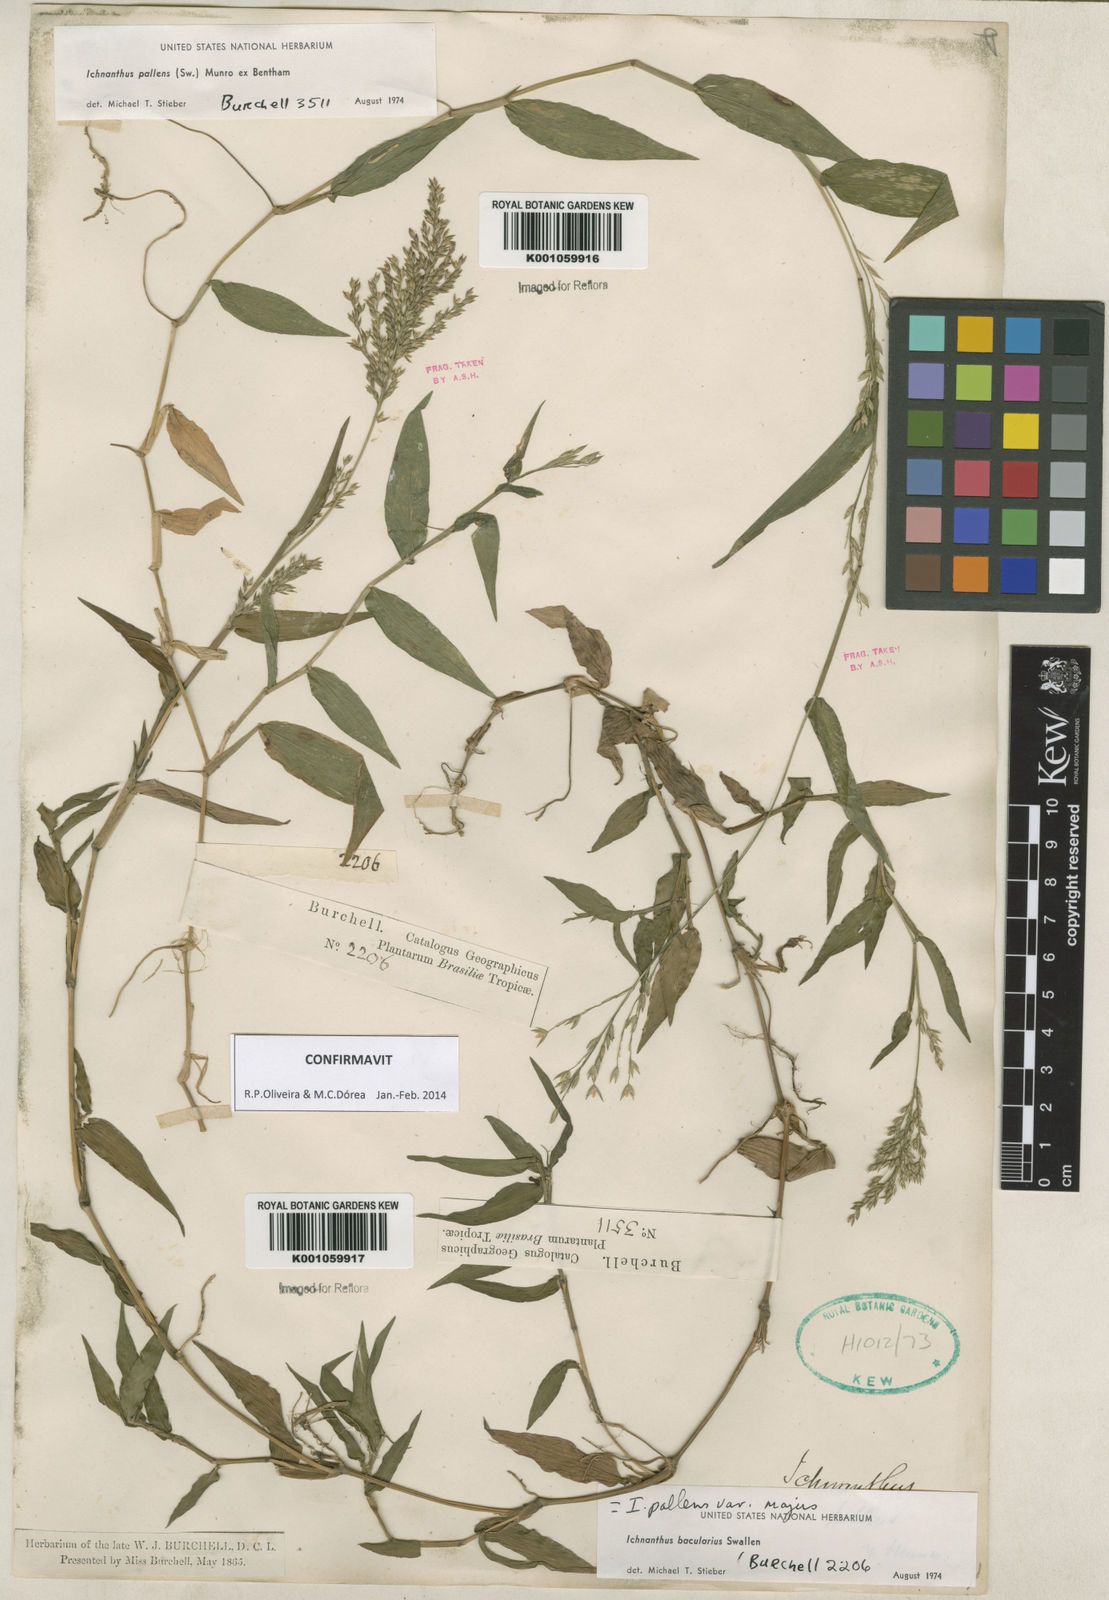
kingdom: Plantae
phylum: Tracheophyta
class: Liliopsida
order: Poales
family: Poaceae
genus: Ichnanthus
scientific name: Ichnanthus pallens
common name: Water grass
